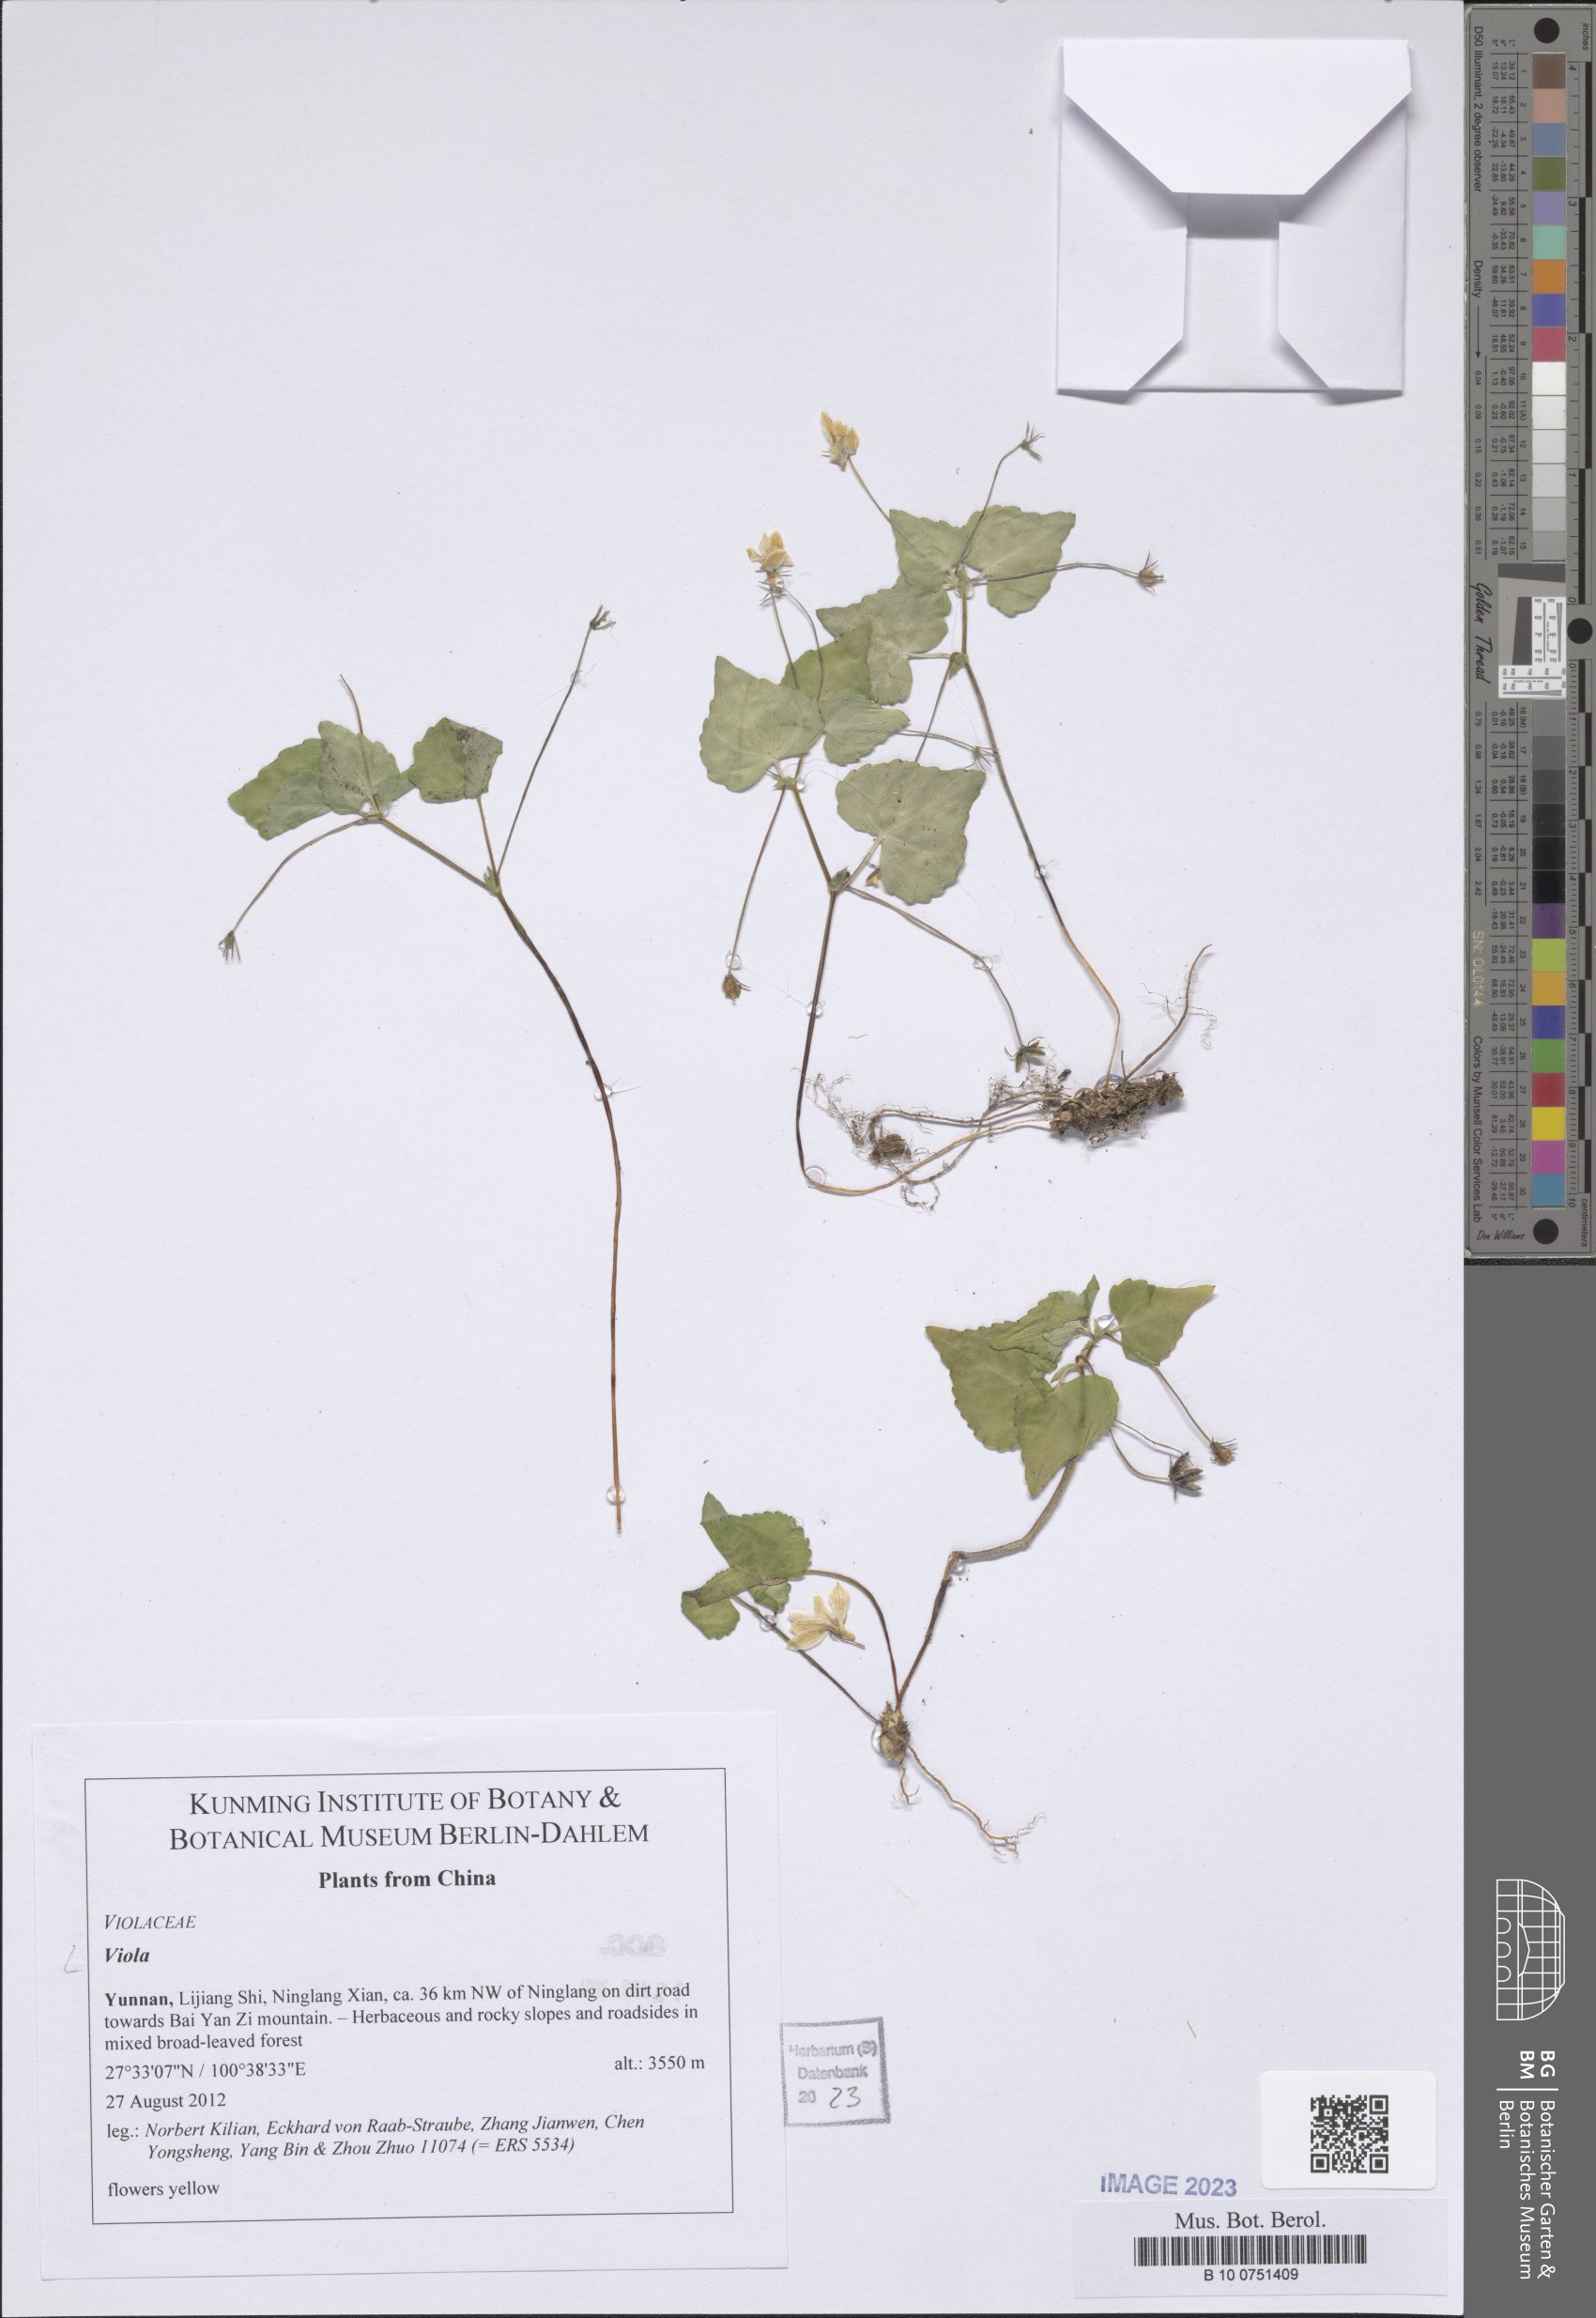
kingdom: Plantae
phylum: Tracheophyta
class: Magnoliopsida
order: Malpighiales
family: Violaceae
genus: Viola
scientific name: Viola
